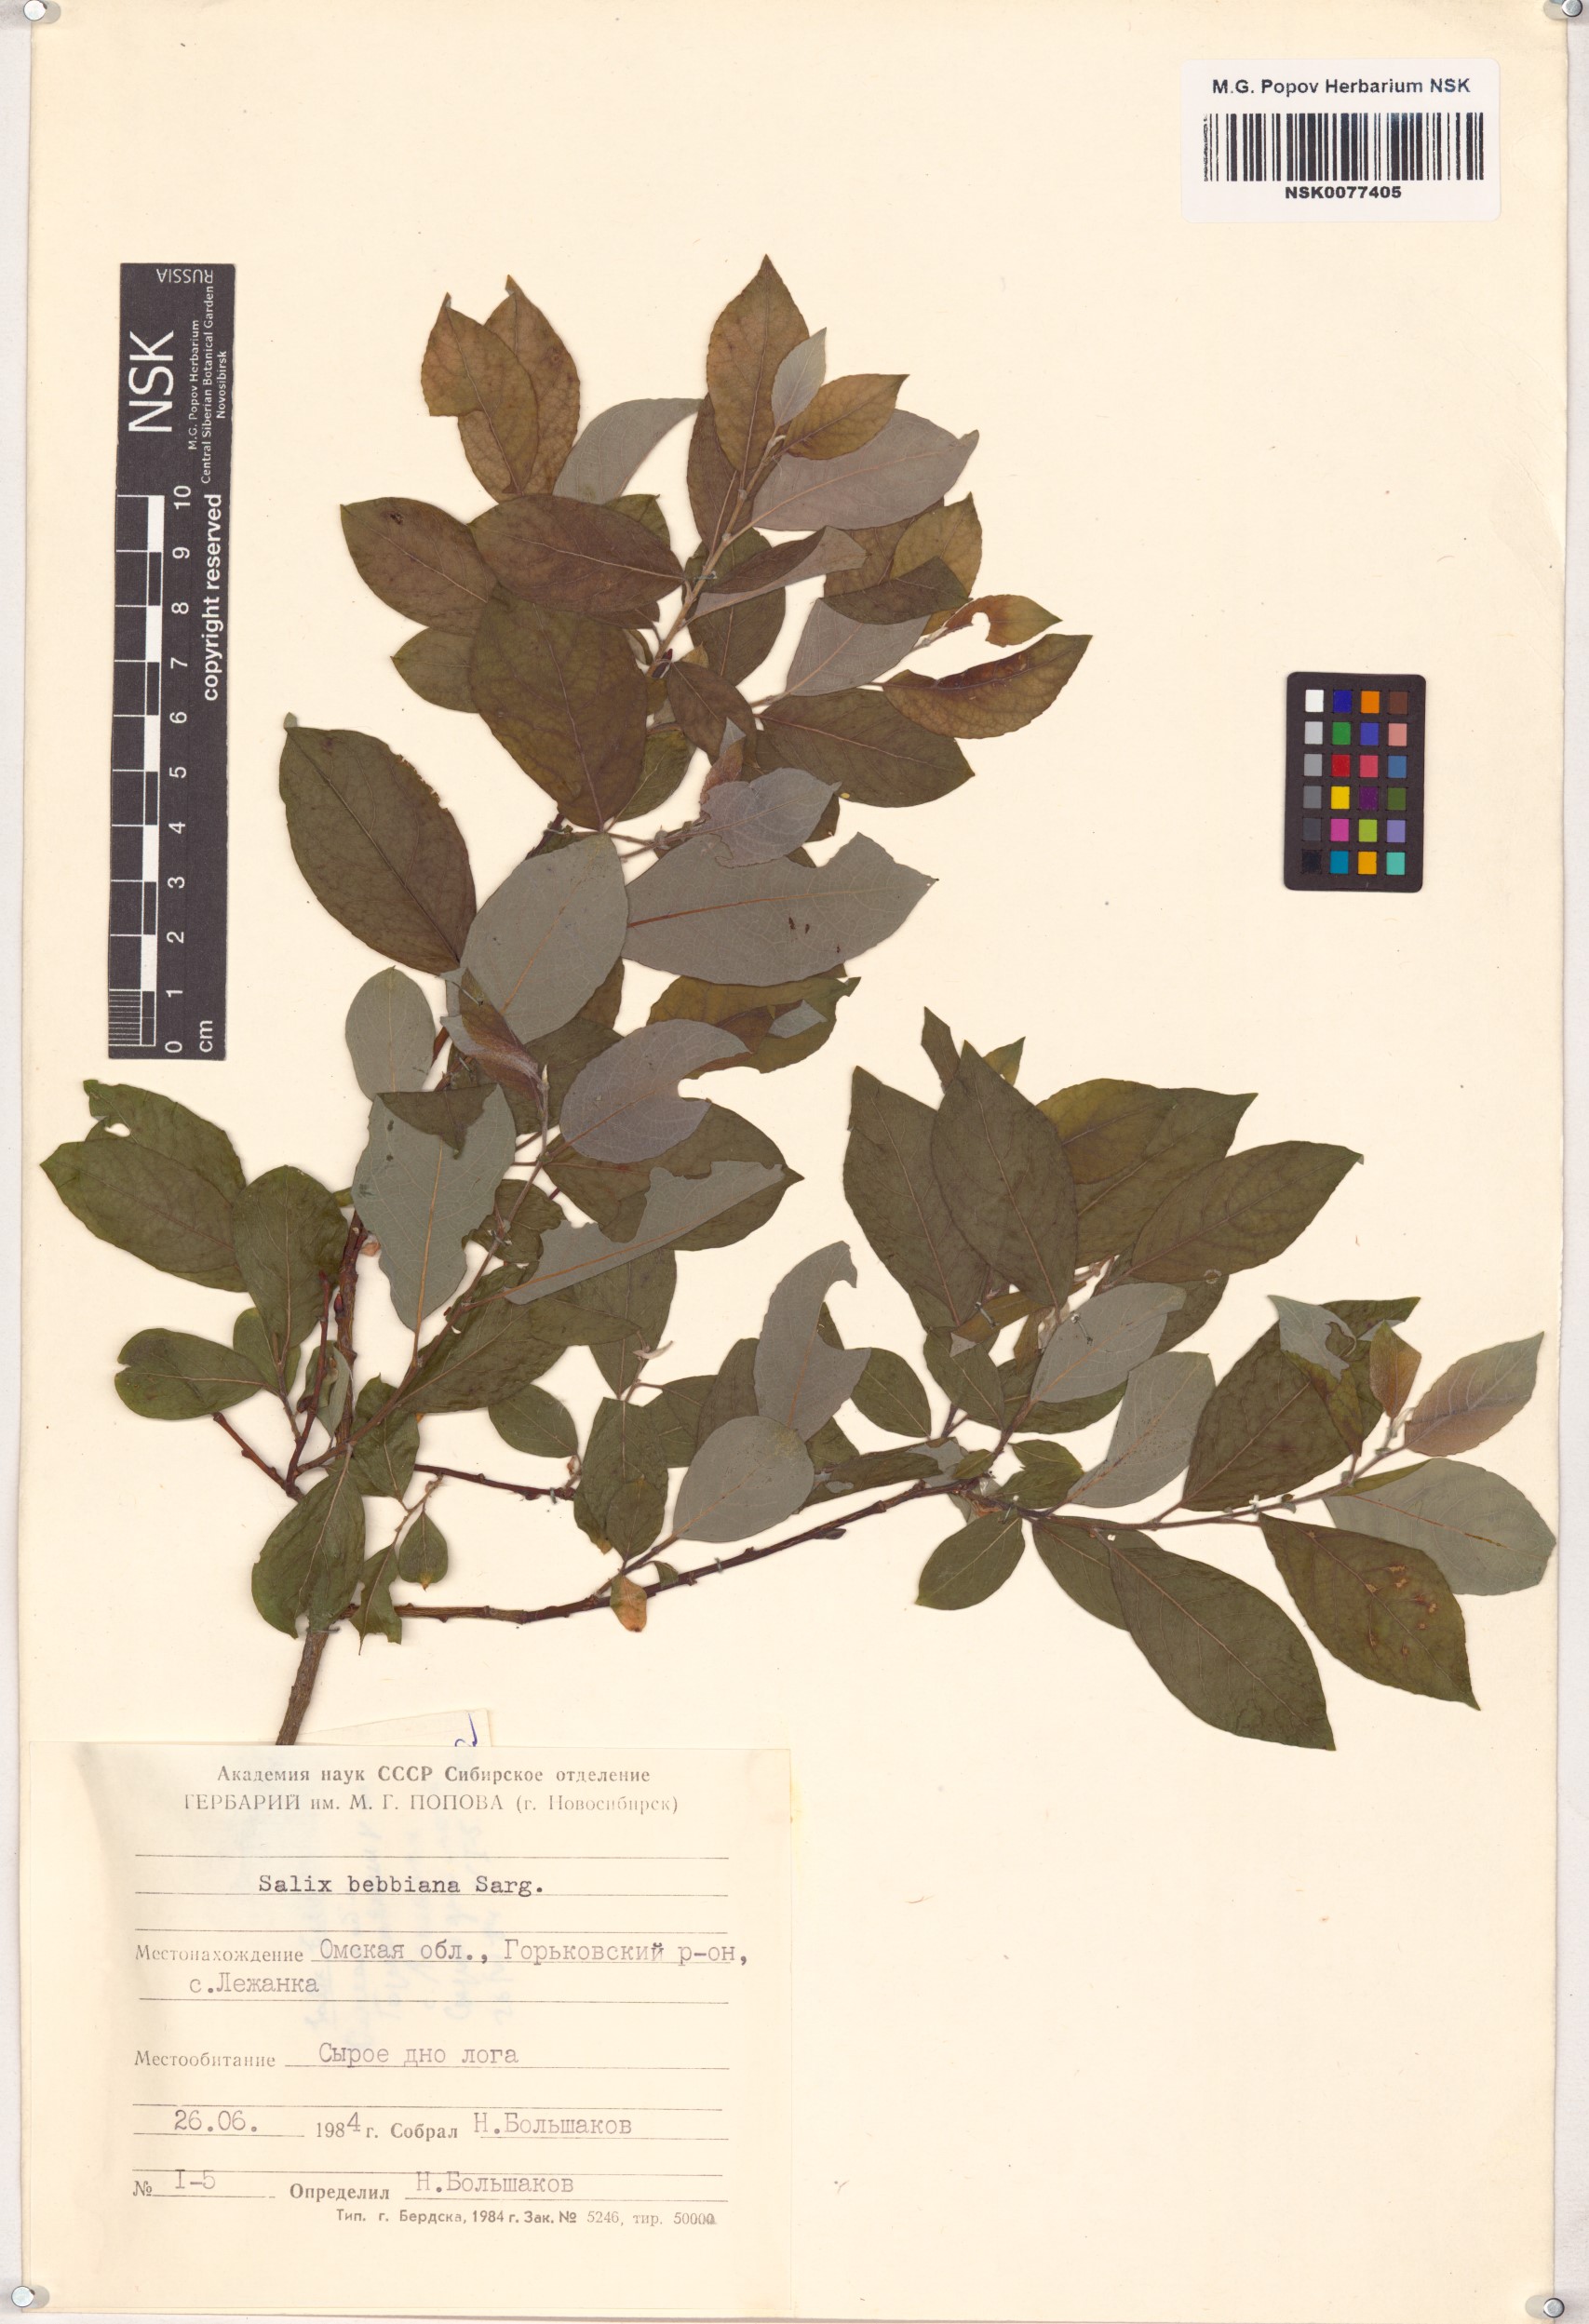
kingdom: Plantae
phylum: Tracheophyta
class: Magnoliopsida
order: Malpighiales
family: Salicaceae
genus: Salix
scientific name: Salix bebbiana
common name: Bebb's willow
